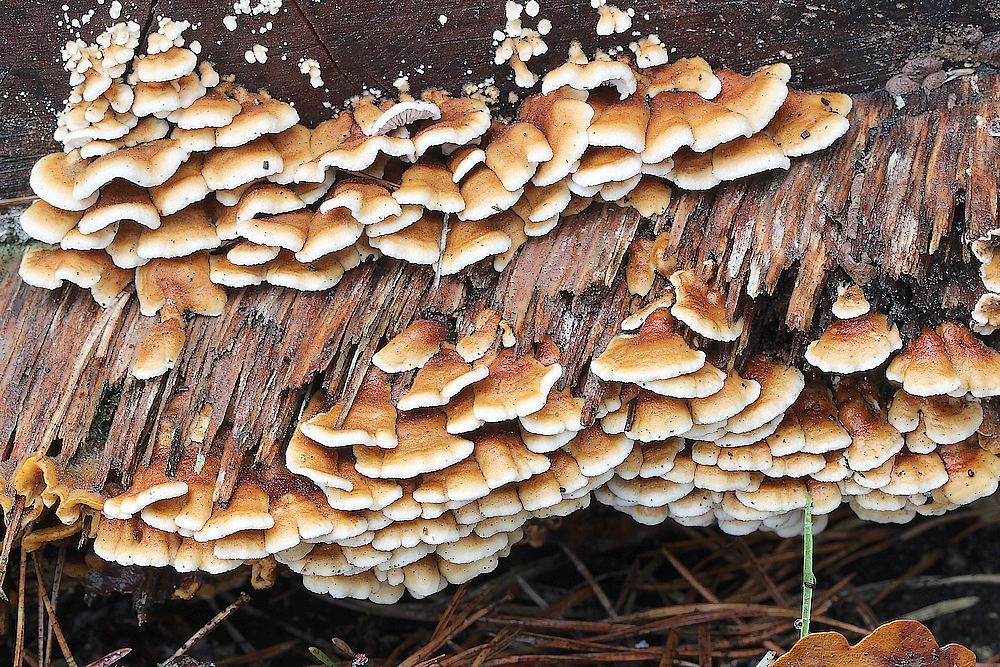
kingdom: Fungi
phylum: Basidiomycota
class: Agaricomycetes
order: Amylocorticiales
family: Amylocorticiaceae
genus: Plicaturopsis
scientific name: Plicaturopsis crispa
